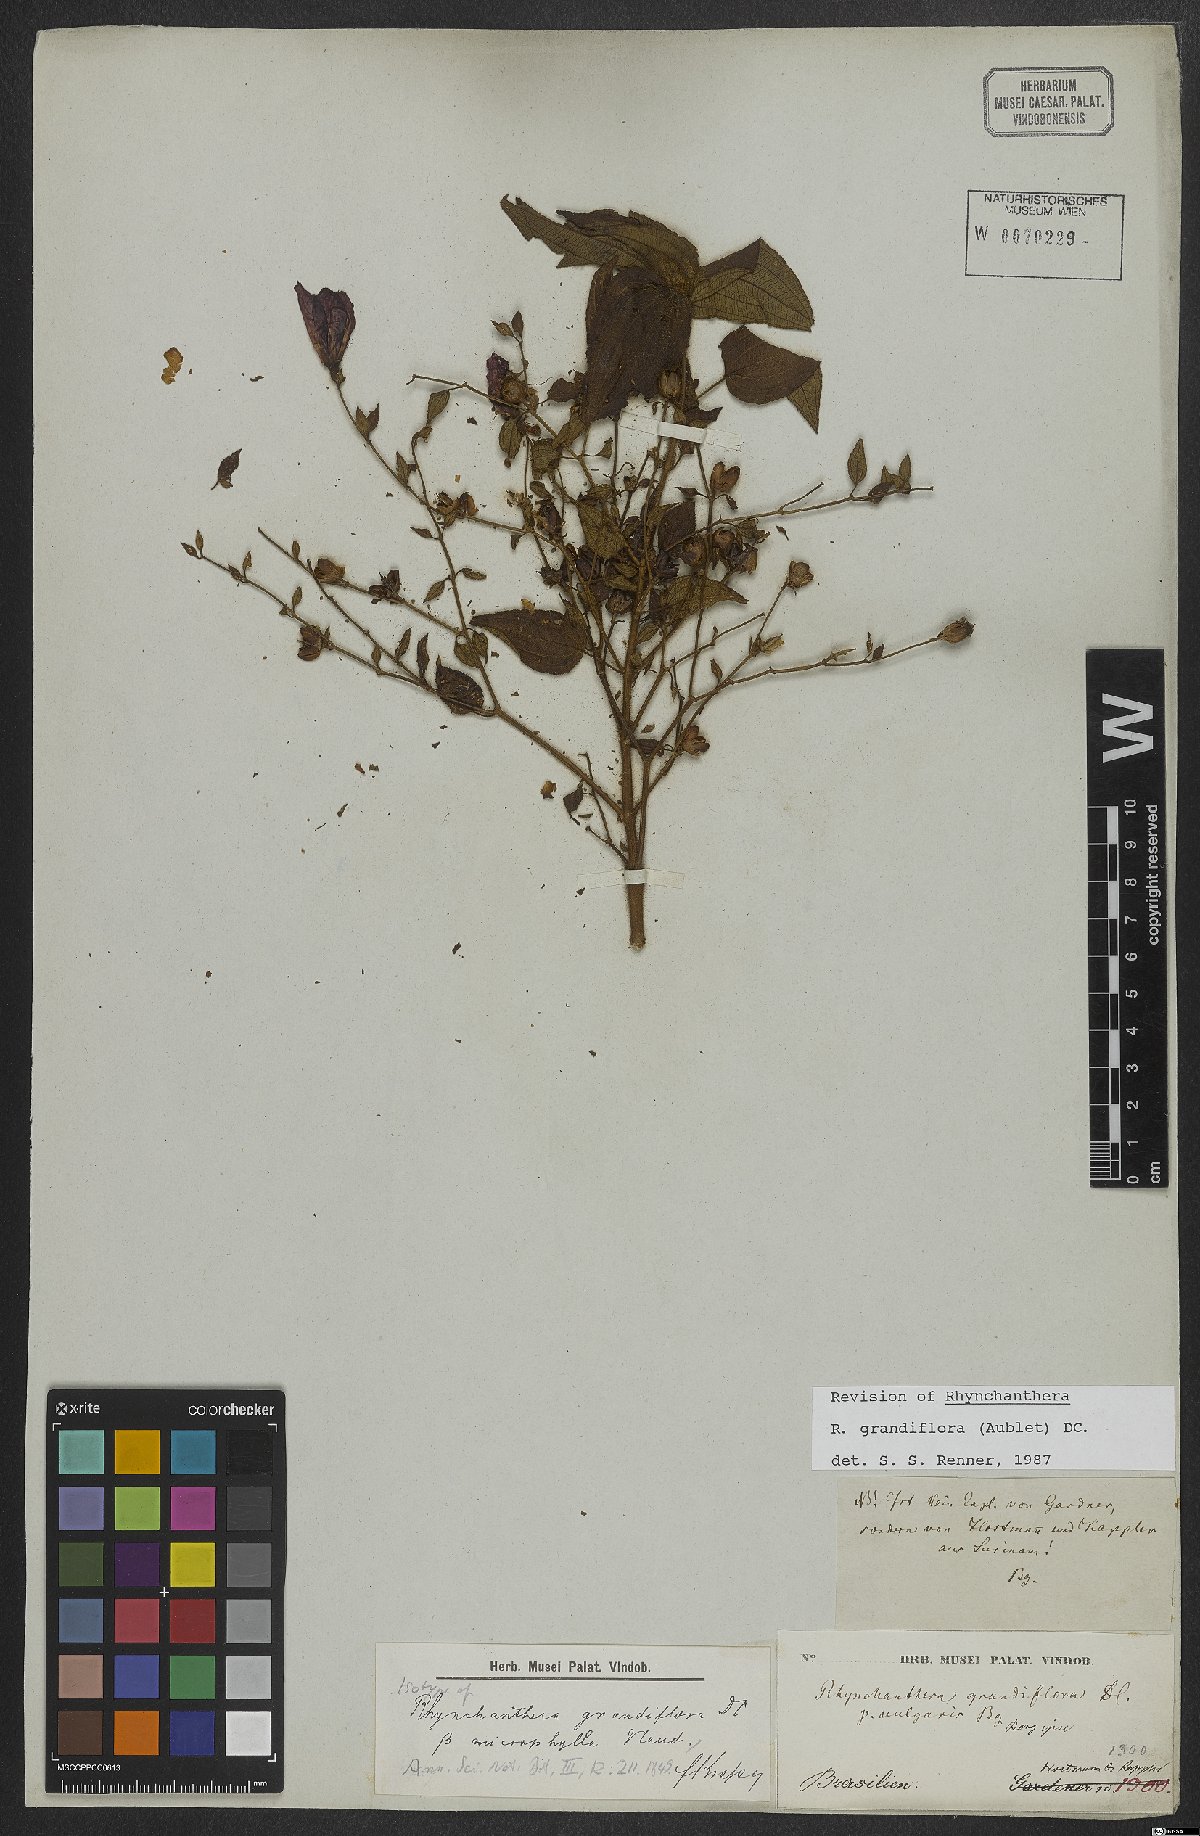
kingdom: Plantae
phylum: Tracheophyta
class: Magnoliopsida
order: Myrtales
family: Melastomataceae
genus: Rhynchanthera
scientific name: Rhynchanthera grandiflora
